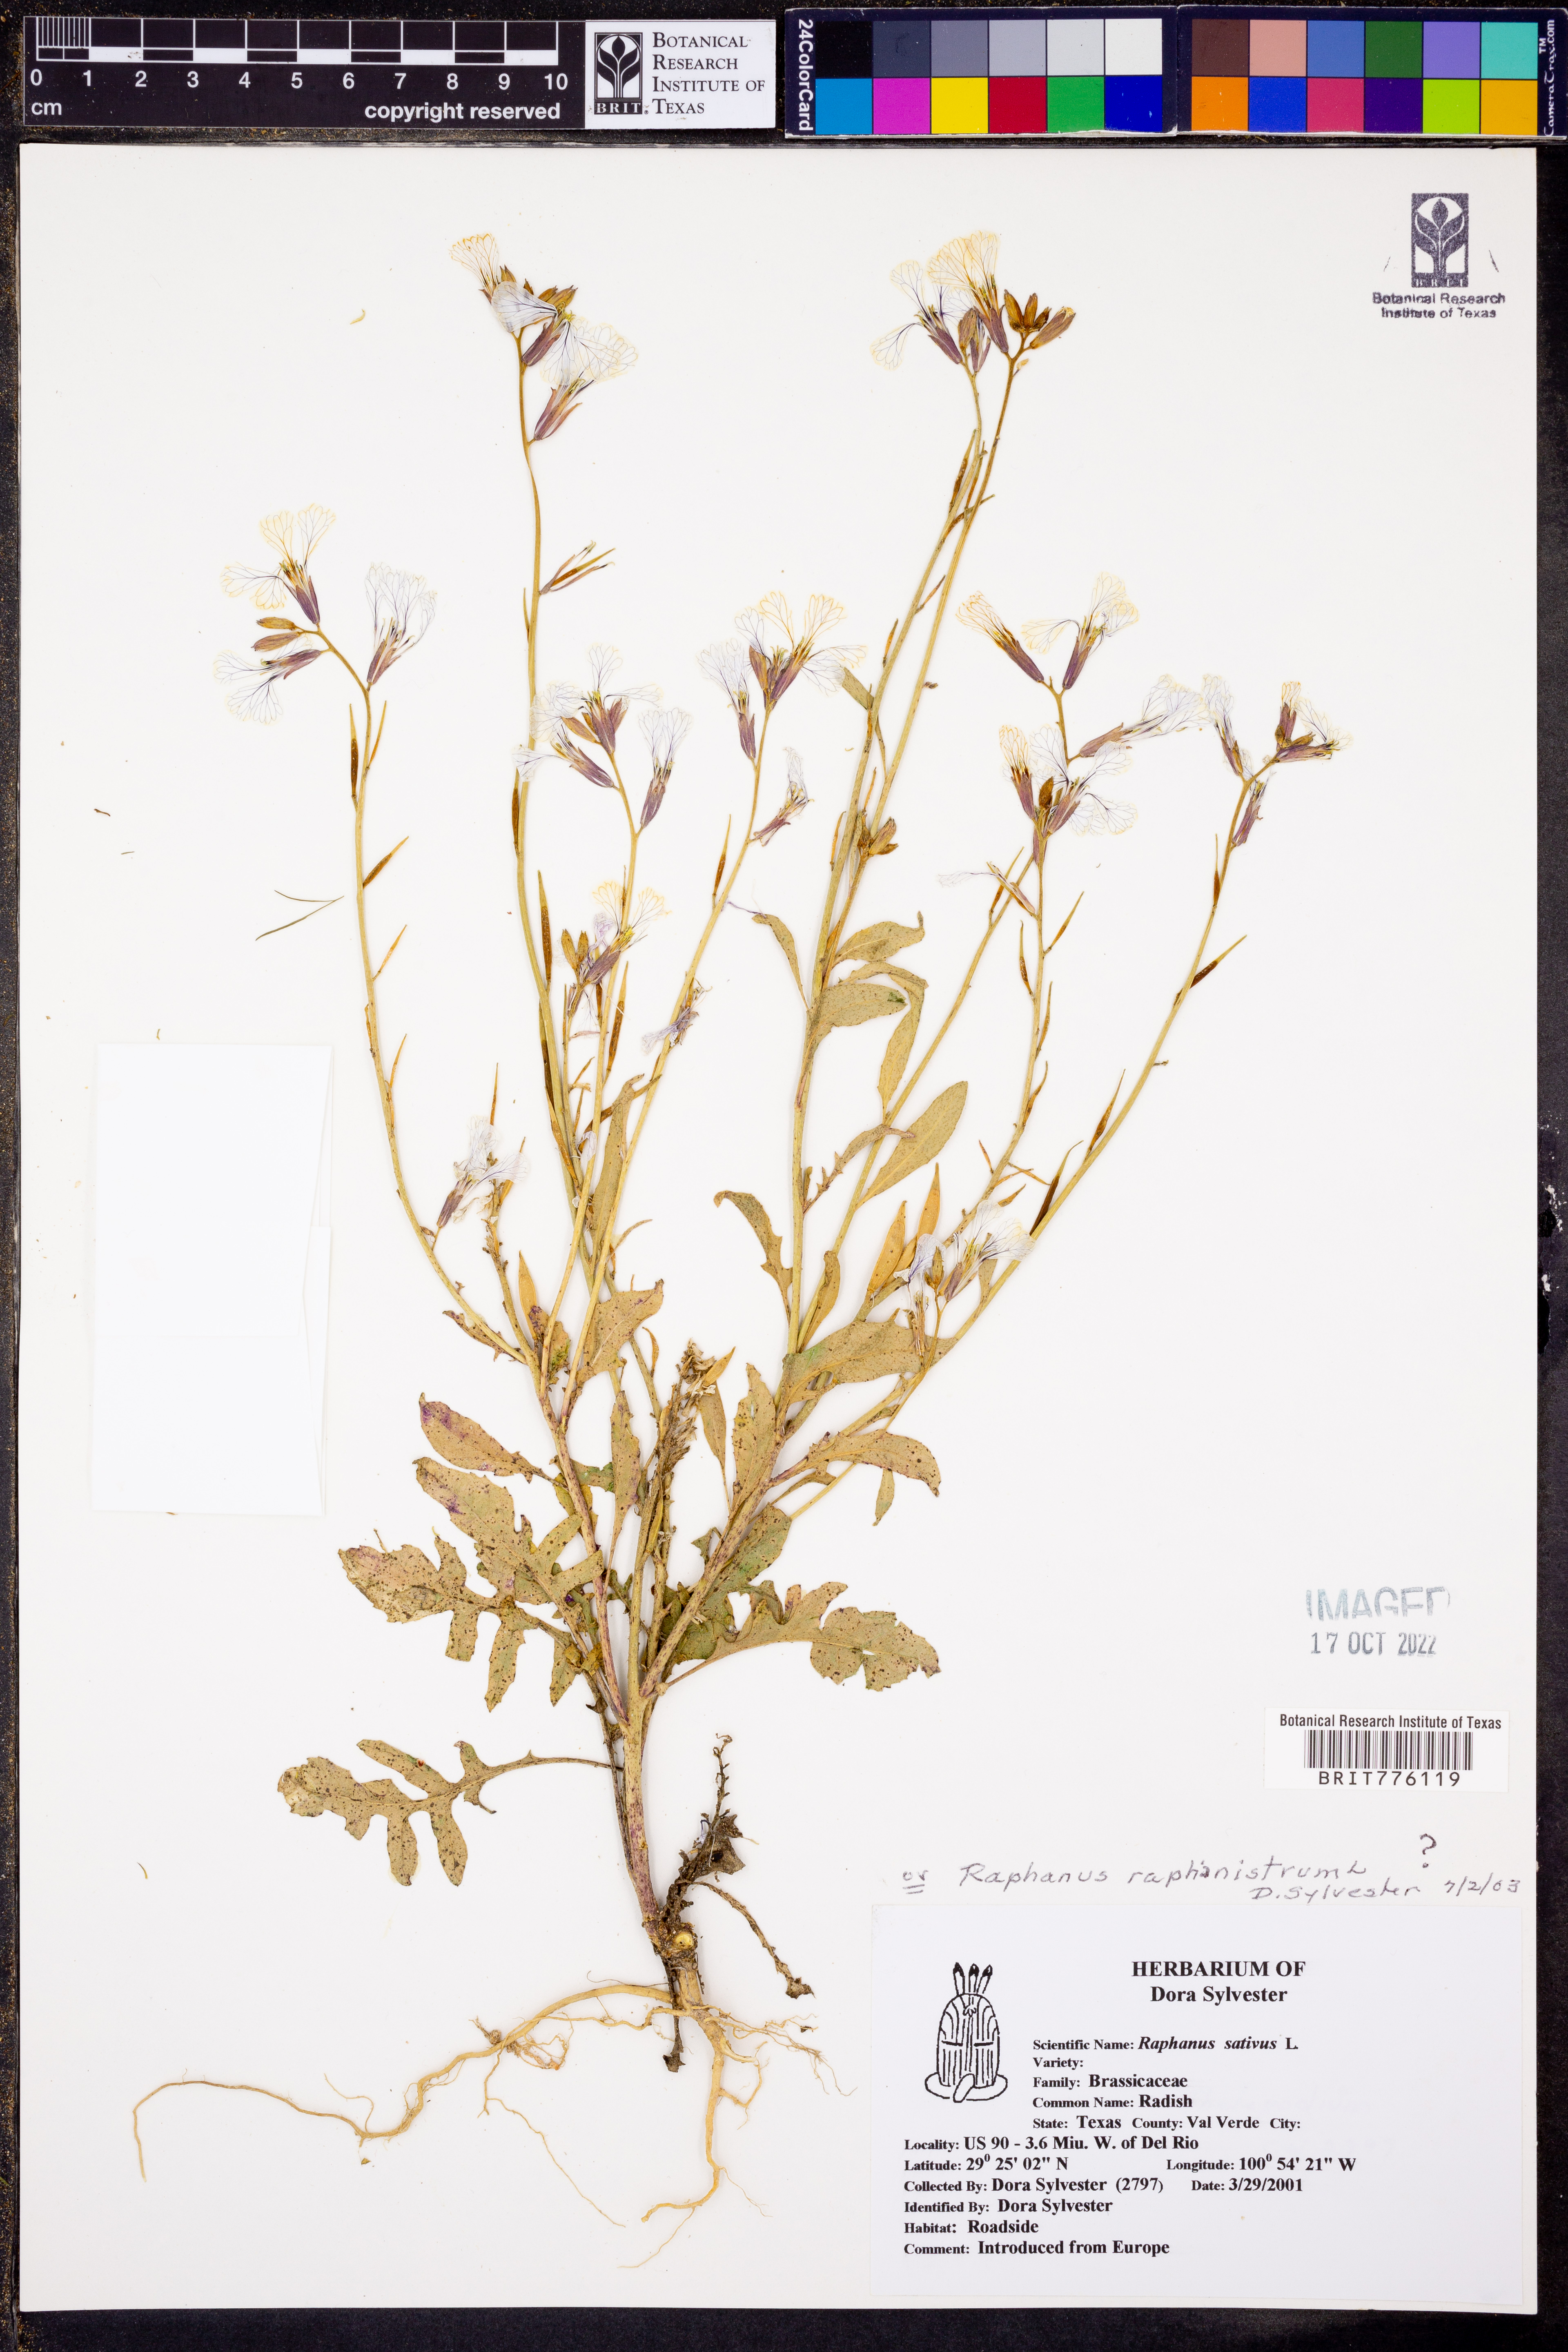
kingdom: Plantae
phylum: Tracheophyta
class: Magnoliopsida
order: Brassicales
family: Brassicaceae
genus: Raphanus
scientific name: Raphanus raphanistrum
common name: Wild radish
